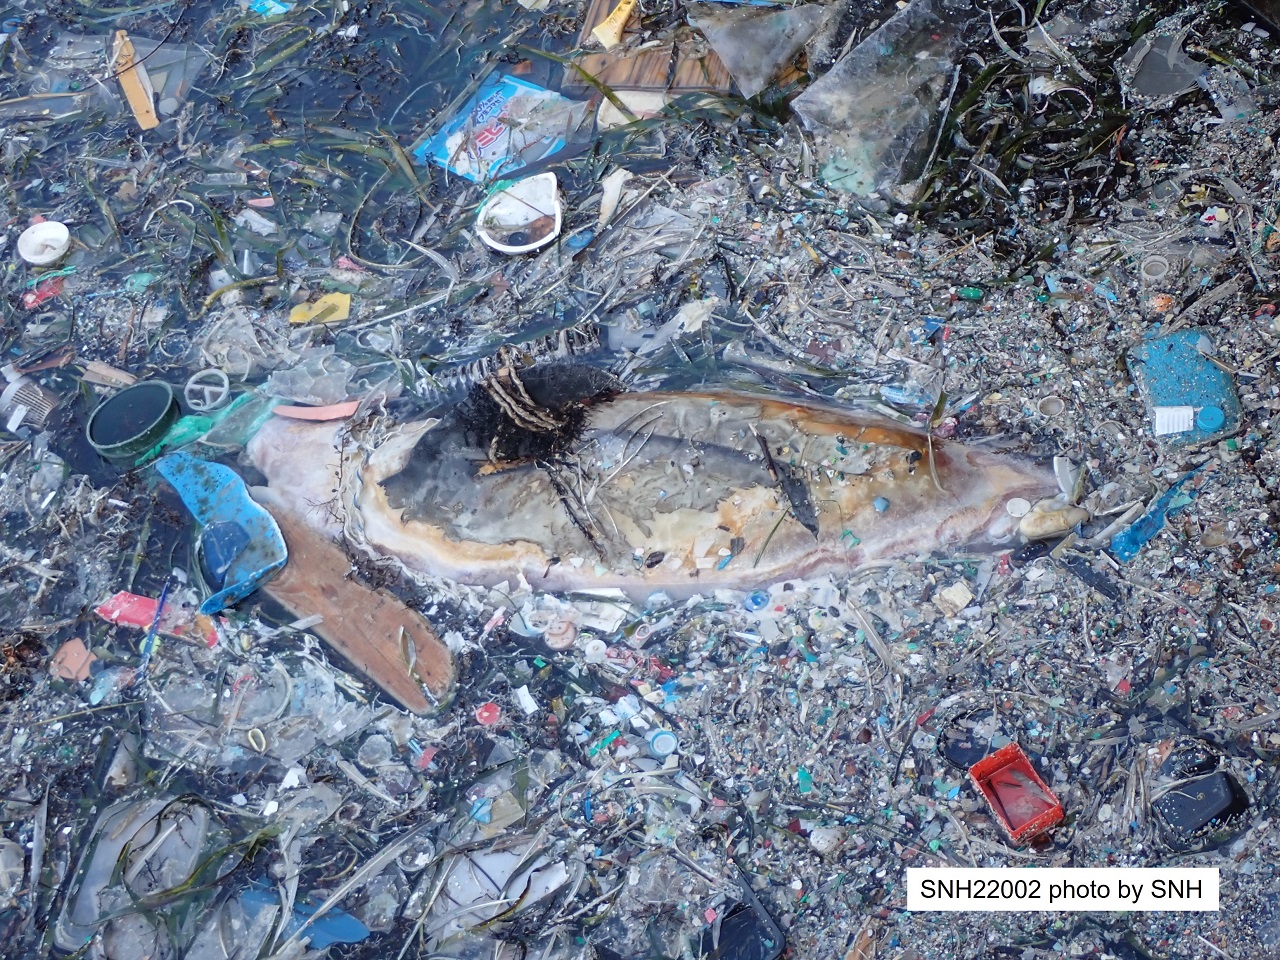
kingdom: Animalia
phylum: Chordata
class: Mammalia
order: Cetacea
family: Delphinidae
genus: Lagenorhynchus
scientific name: Lagenorhynchus obliquidens
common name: Pacific white-sided dolphin
